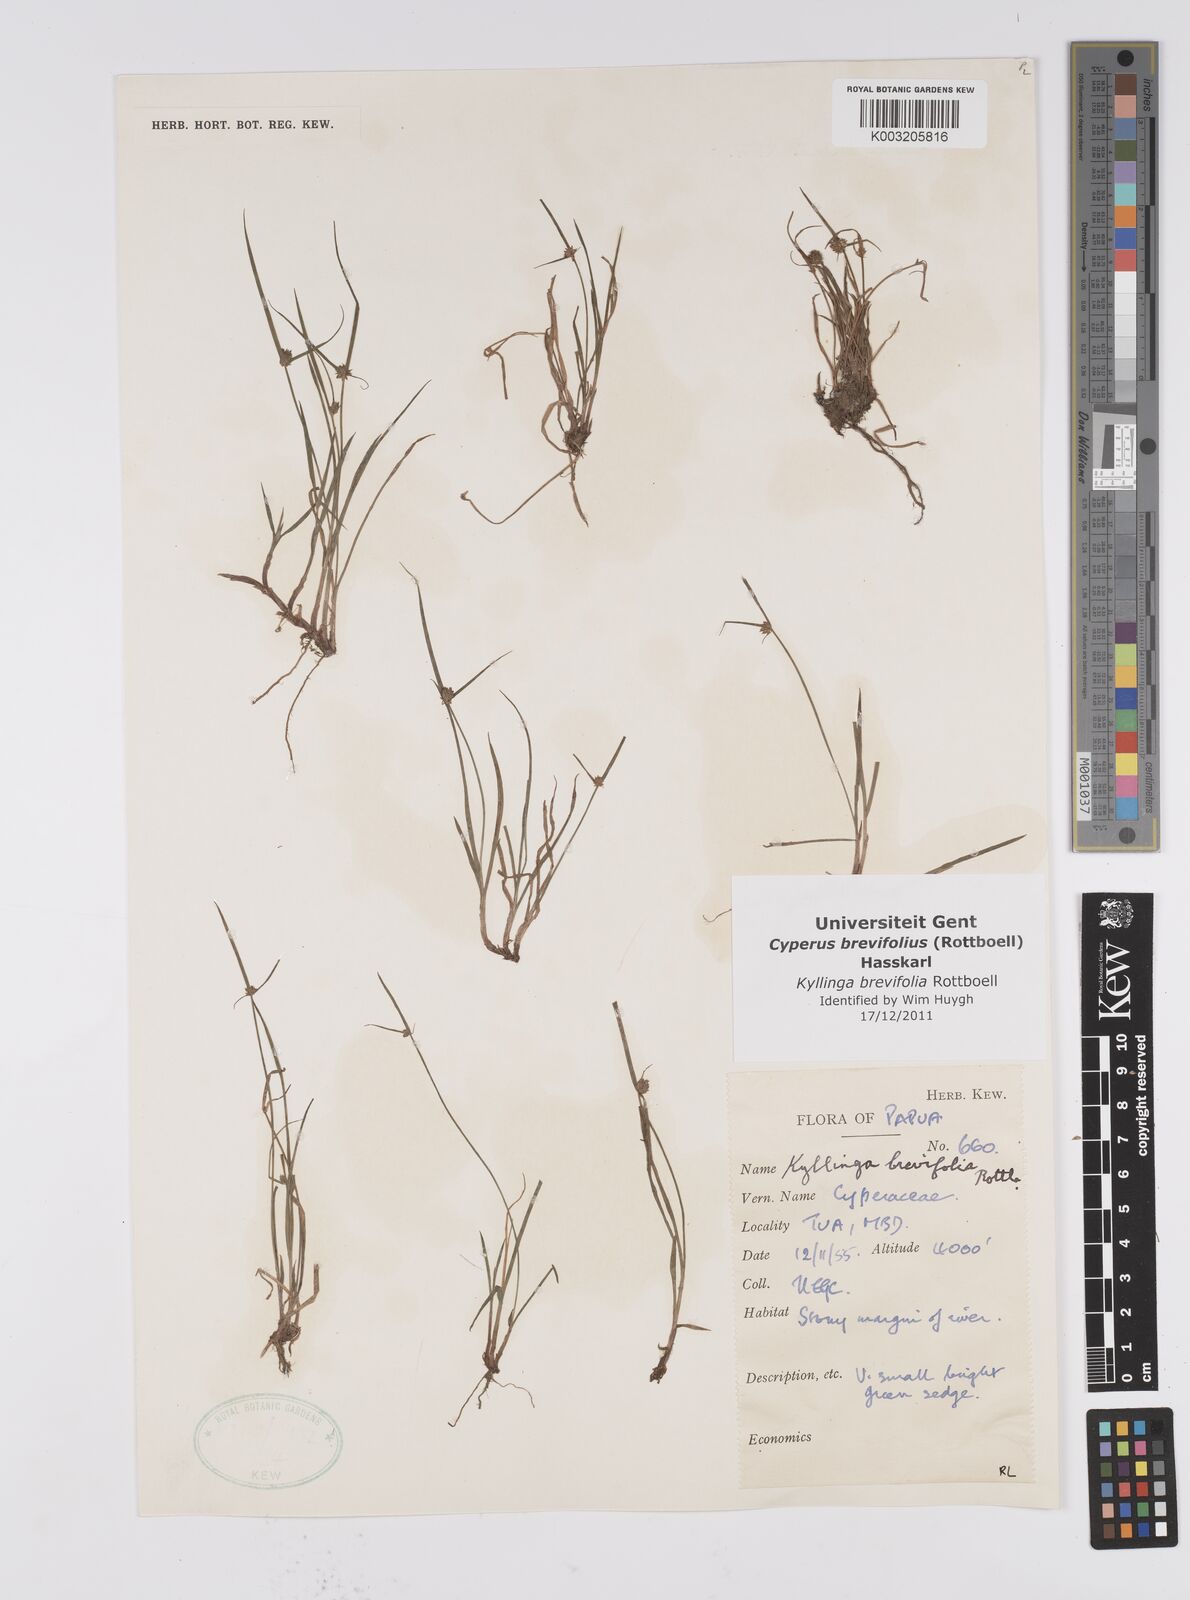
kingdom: Plantae
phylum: Tracheophyta
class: Liliopsida
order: Poales
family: Cyperaceae
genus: Cyperus
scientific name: Cyperus brevifolius
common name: Globe kyllinga
